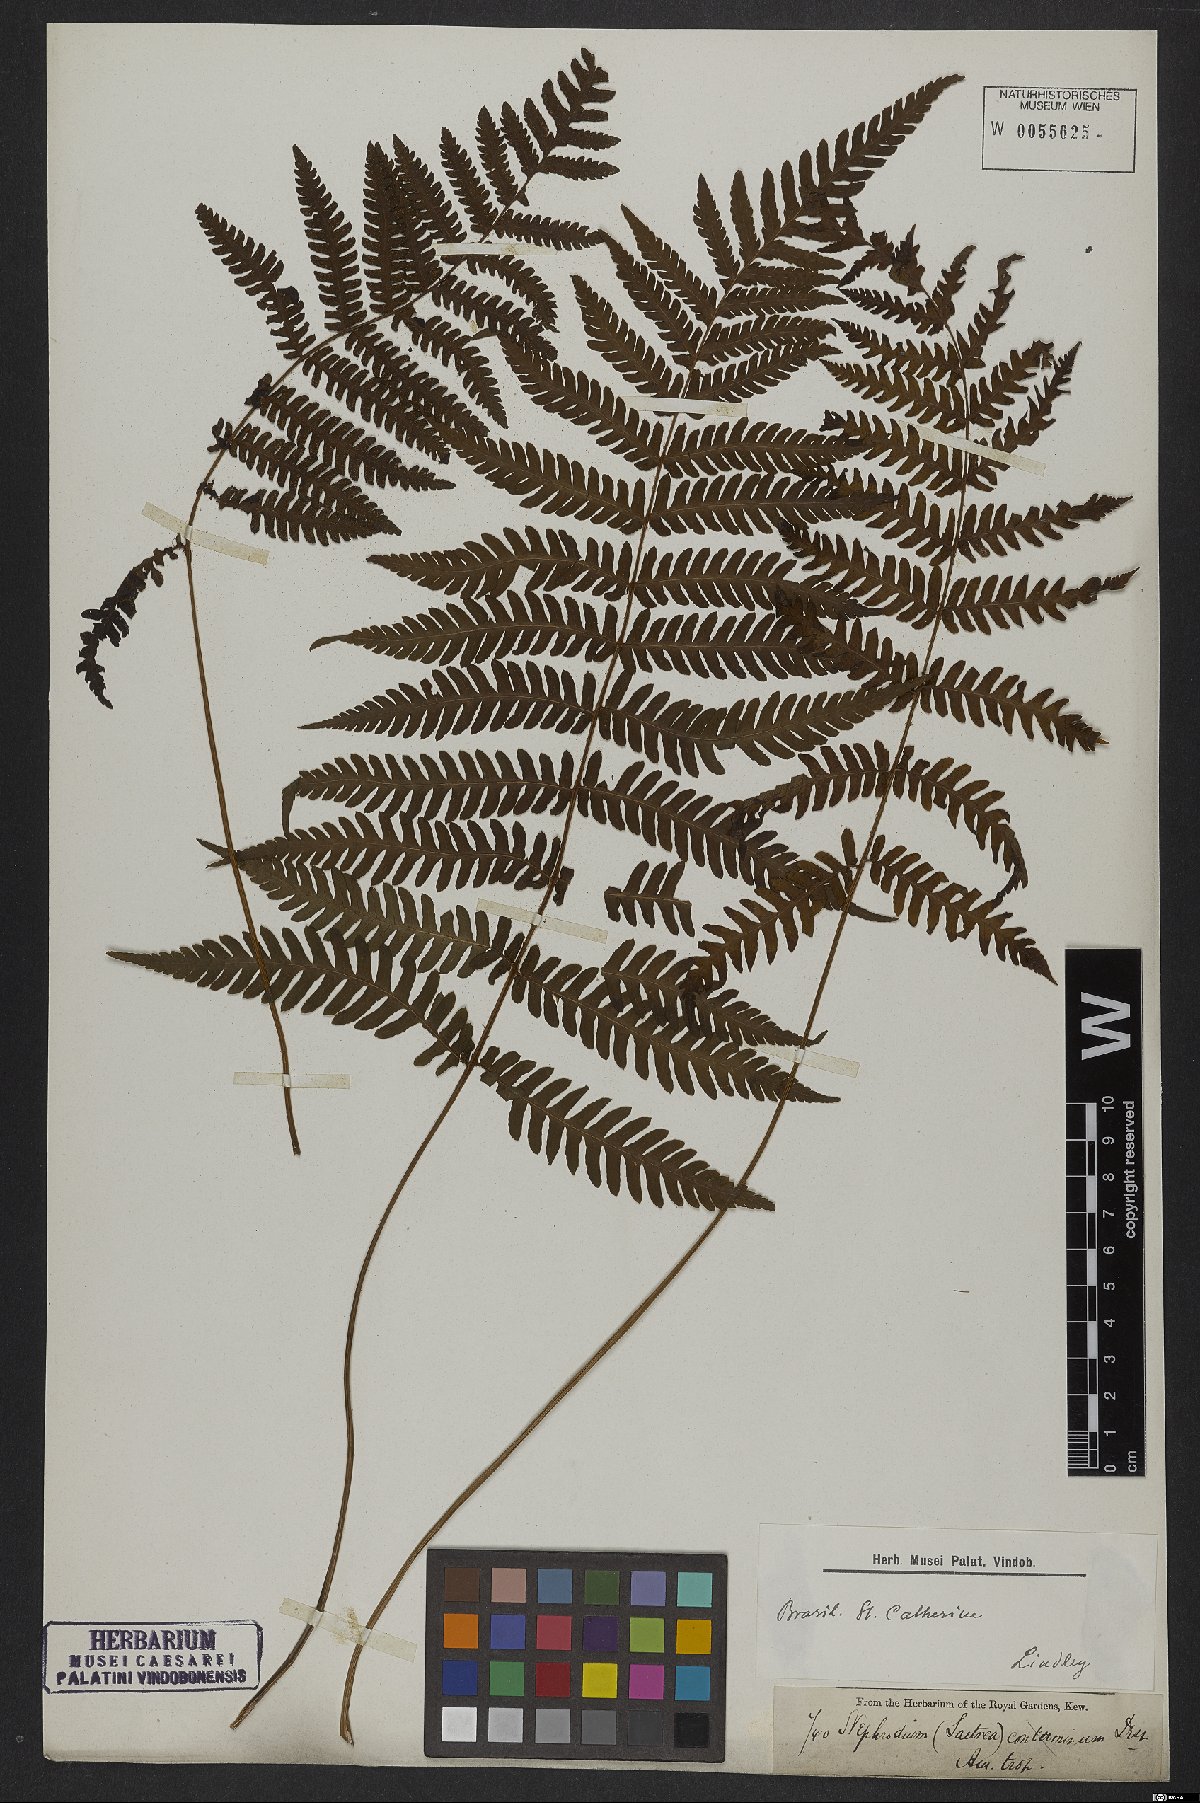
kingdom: Plantae
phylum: Tracheophyta
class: Polypodiopsida
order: Polypodiales
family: Dryopteridaceae
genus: Ctenitis
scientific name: Ctenitis falciculata
